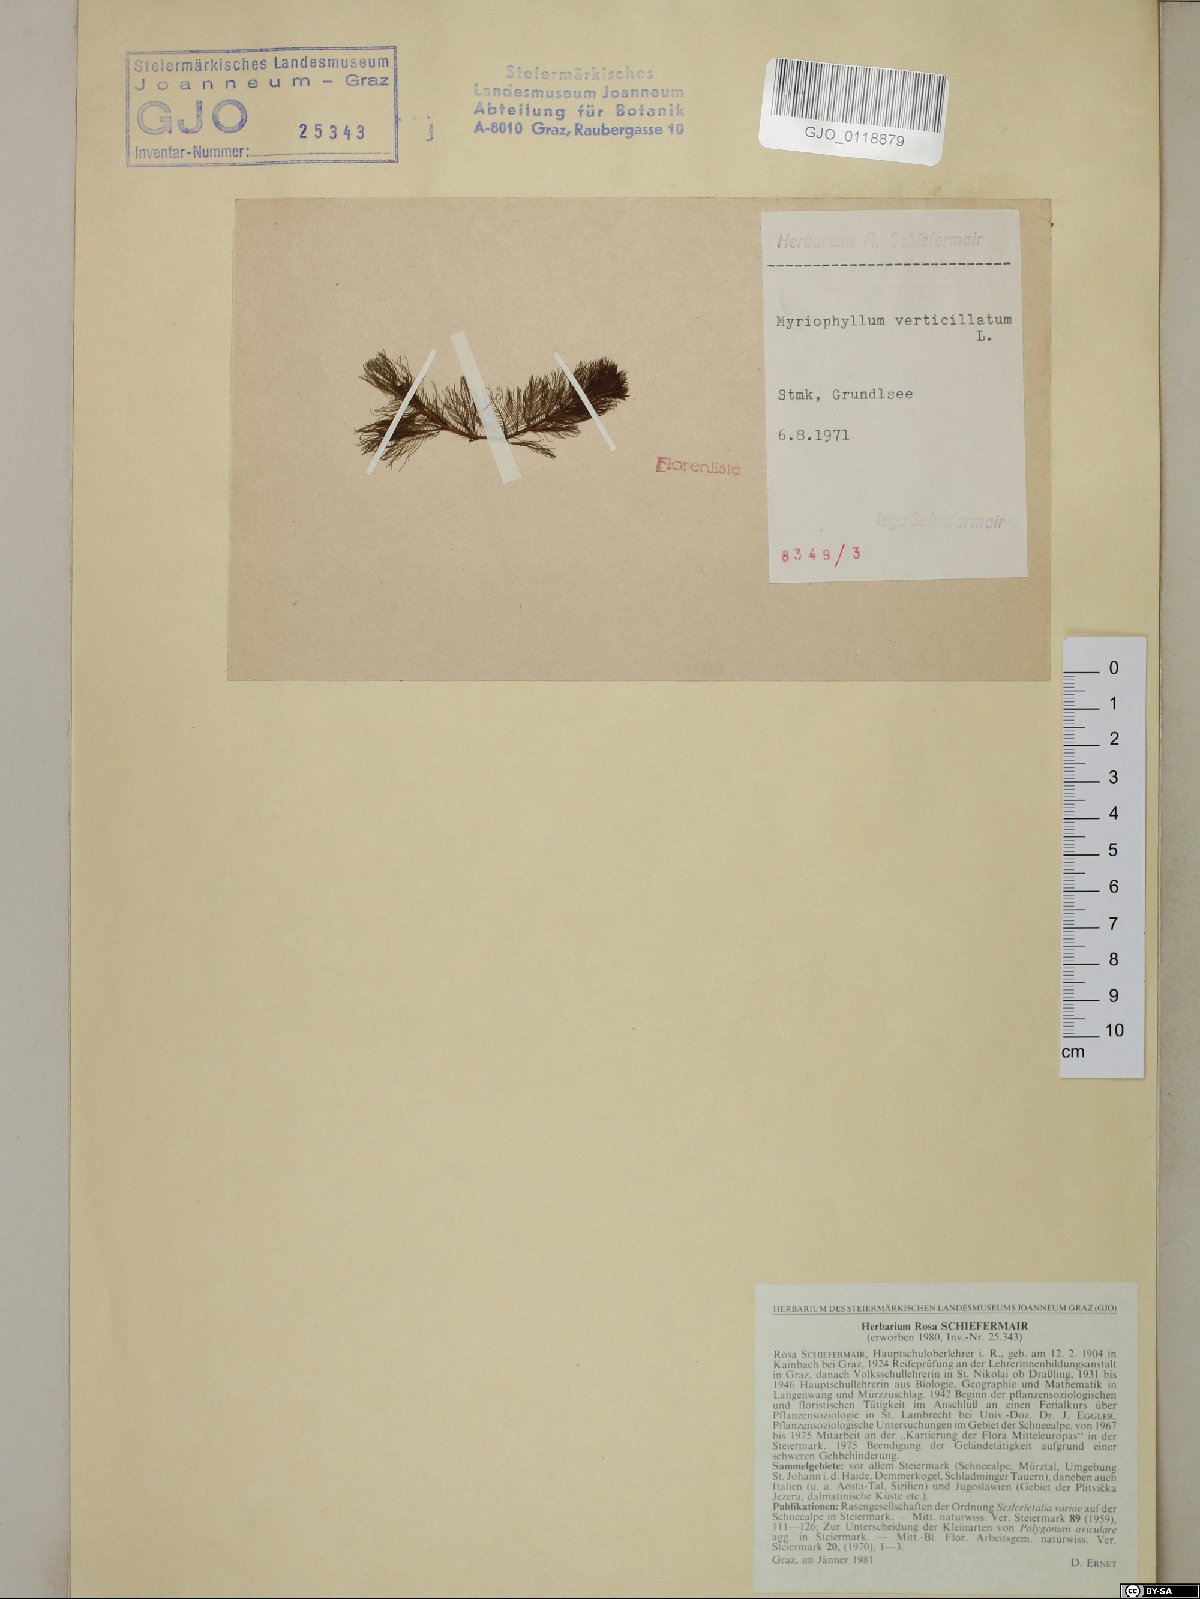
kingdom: Plantae
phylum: Tracheophyta
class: Magnoliopsida
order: Saxifragales
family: Haloragaceae
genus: Myriophyllum
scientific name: Myriophyllum verticillatum
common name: Whorled water-milfoil
